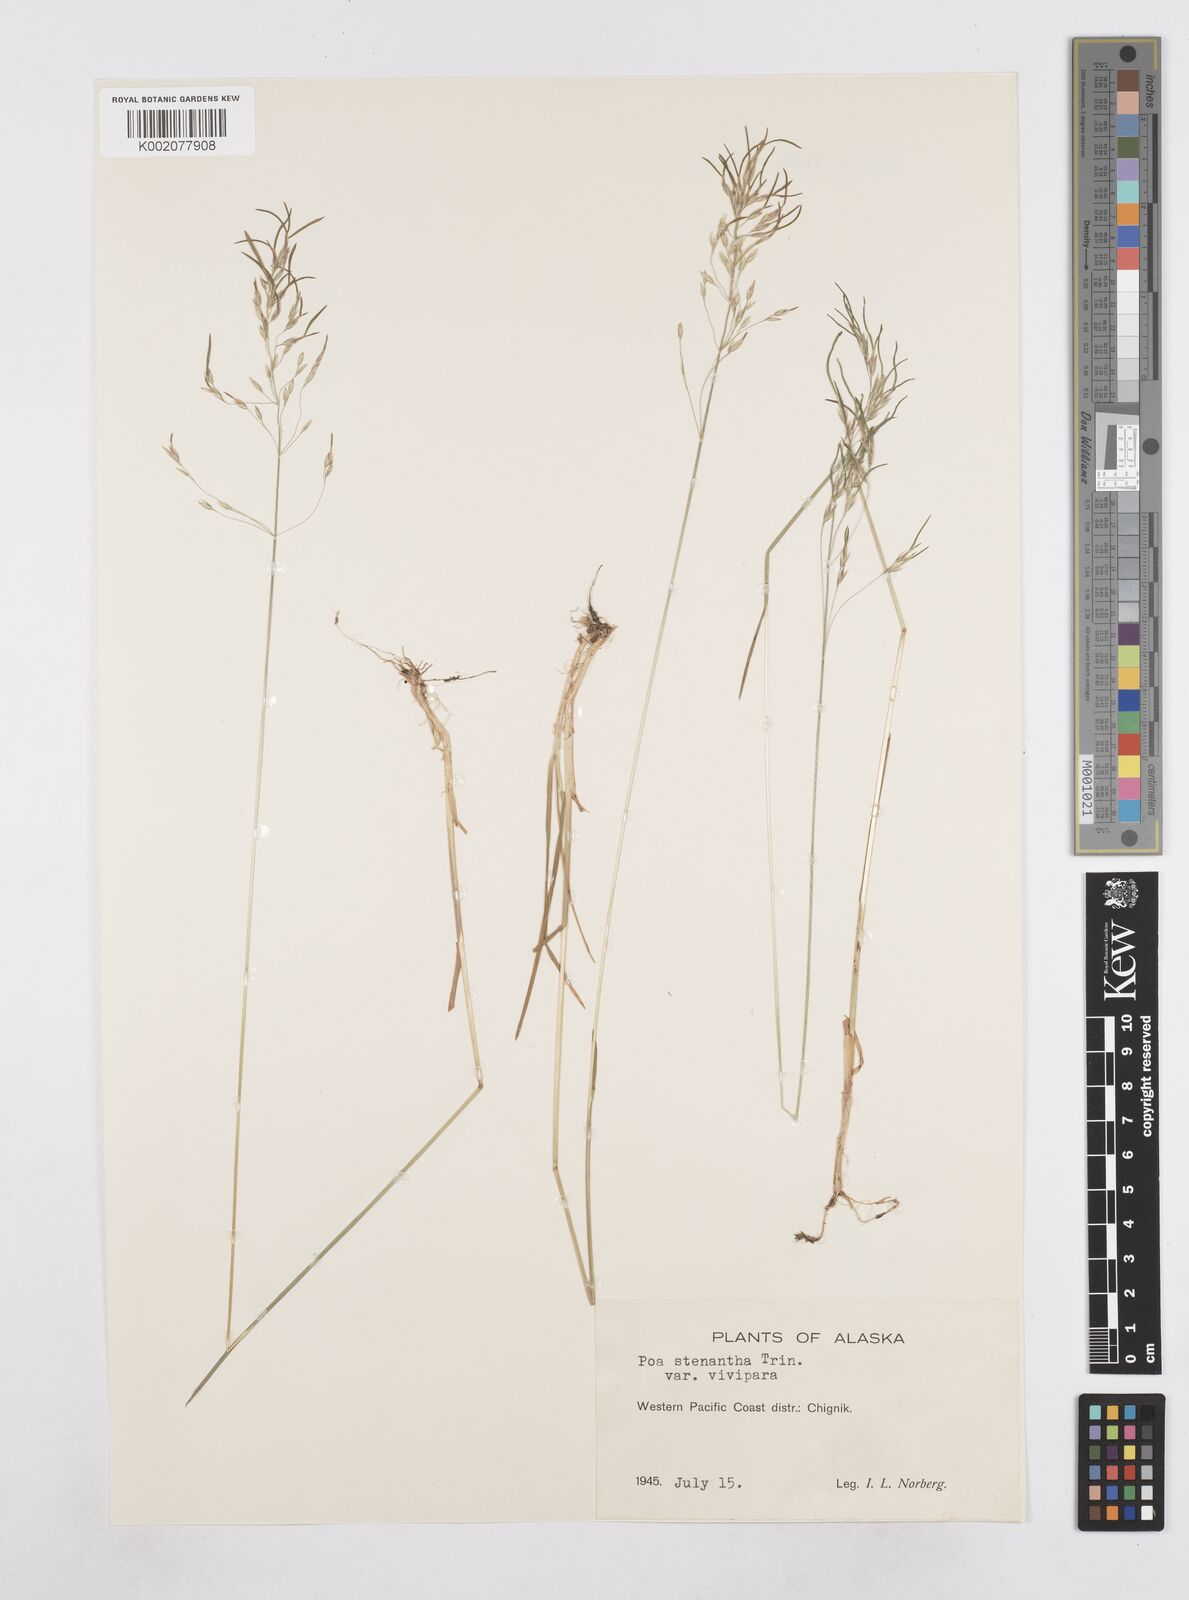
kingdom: Plantae
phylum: Tracheophyta
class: Liliopsida
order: Poales
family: Poaceae
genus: Poa
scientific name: Poa stenantha
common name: Narrow-flowered bluegrass
